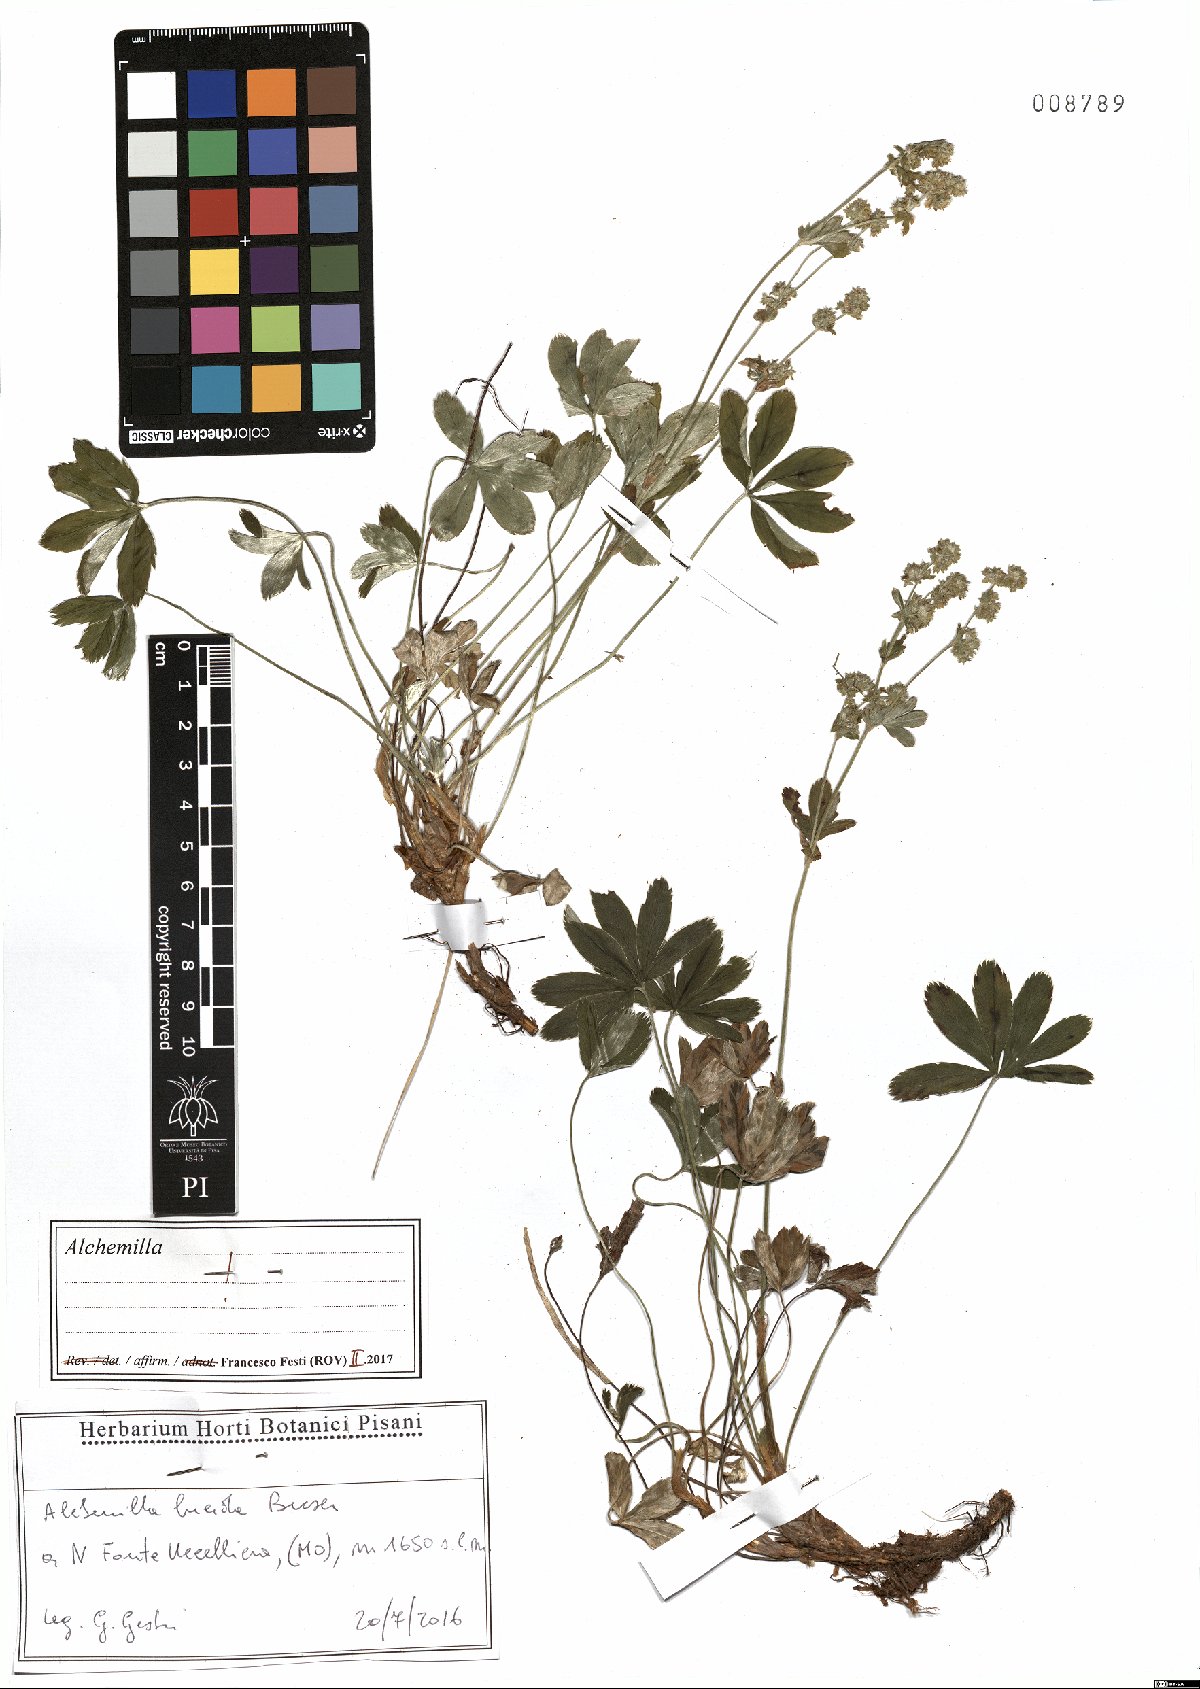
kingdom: Plantae
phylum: Tracheophyta
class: Magnoliopsida
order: Rosales
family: Rosaceae
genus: Alchemilla
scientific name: Alchemilla lucida
